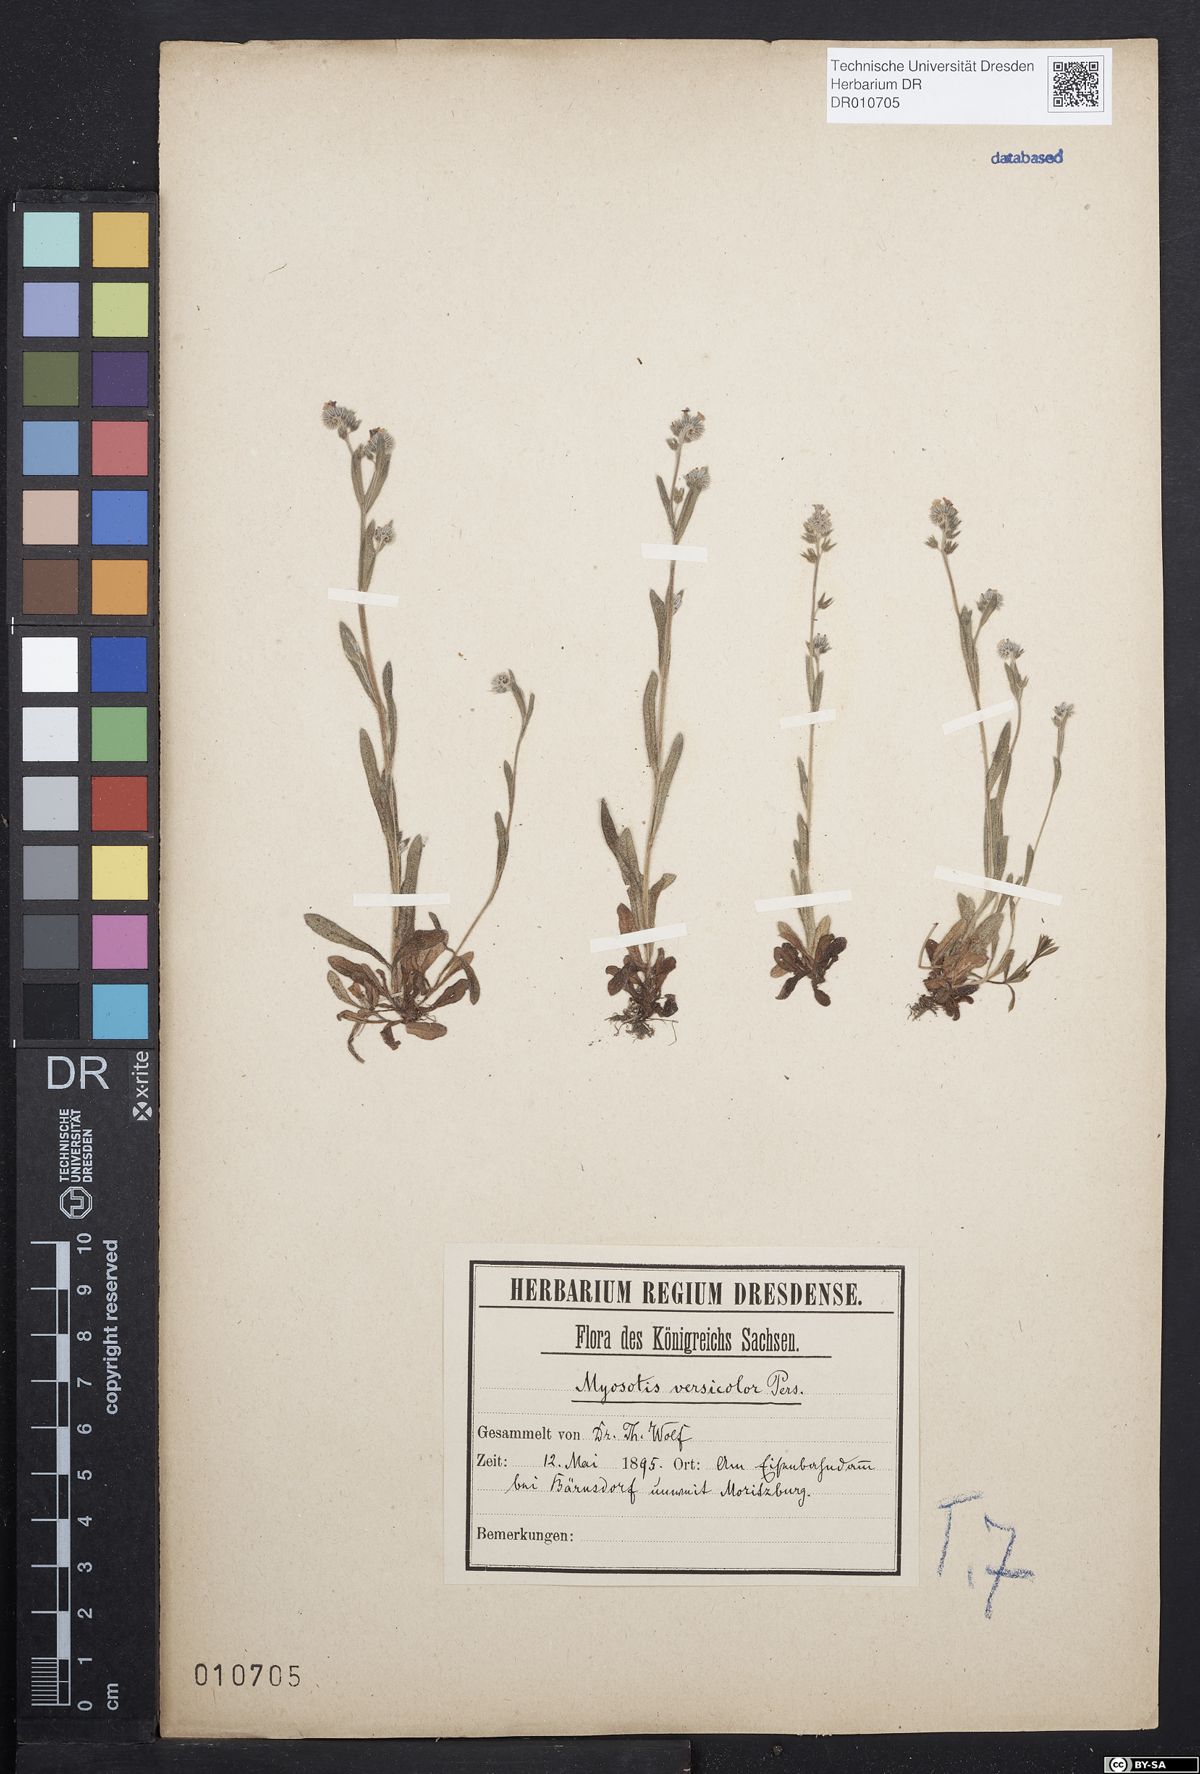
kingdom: Plantae
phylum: Tracheophyta
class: Magnoliopsida
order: Boraginales
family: Boraginaceae
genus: Myosotis
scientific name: Myosotis discolor
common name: Changing forget-me-not
